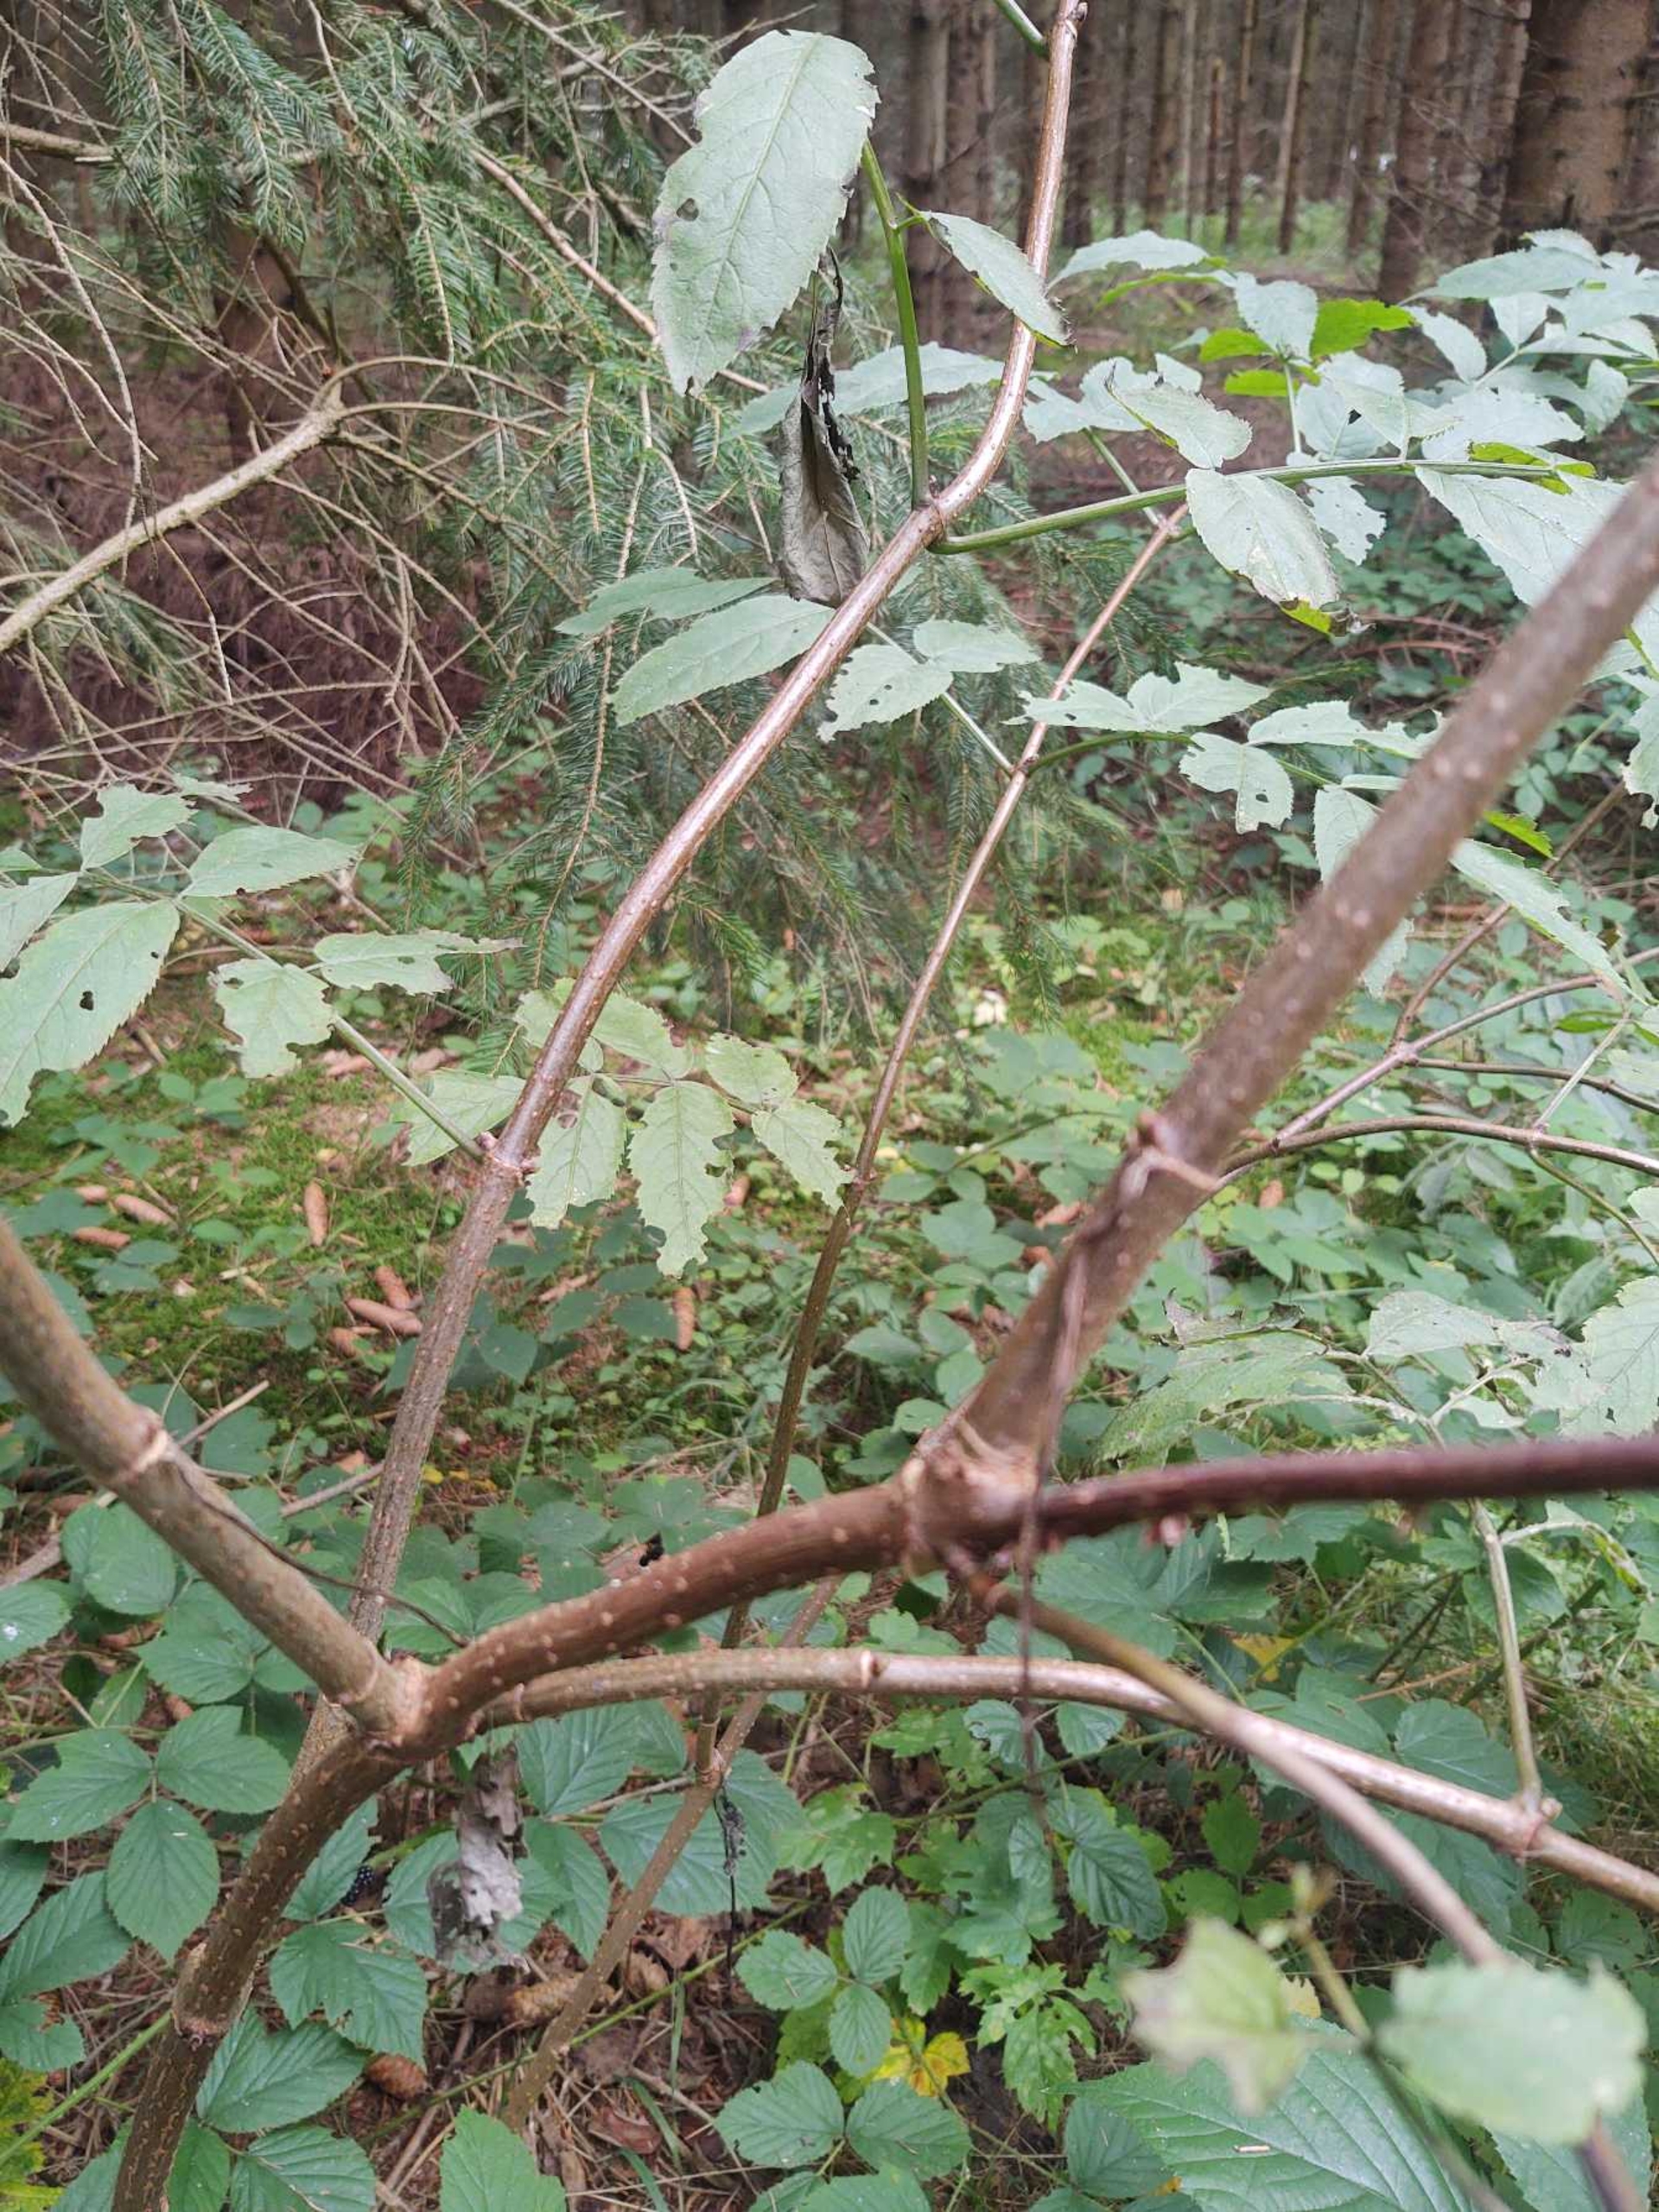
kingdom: Plantae
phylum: Tracheophyta
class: Magnoliopsida
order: Dipsacales
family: Viburnaceae
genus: Sambucus
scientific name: Sambucus racemosa
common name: Drue-hyld
